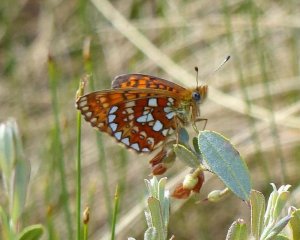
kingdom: Animalia
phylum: Arthropoda
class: Insecta
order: Lepidoptera
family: Nymphalidae
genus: Boloria
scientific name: Boloria eunomia
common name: Bog Fritillary
